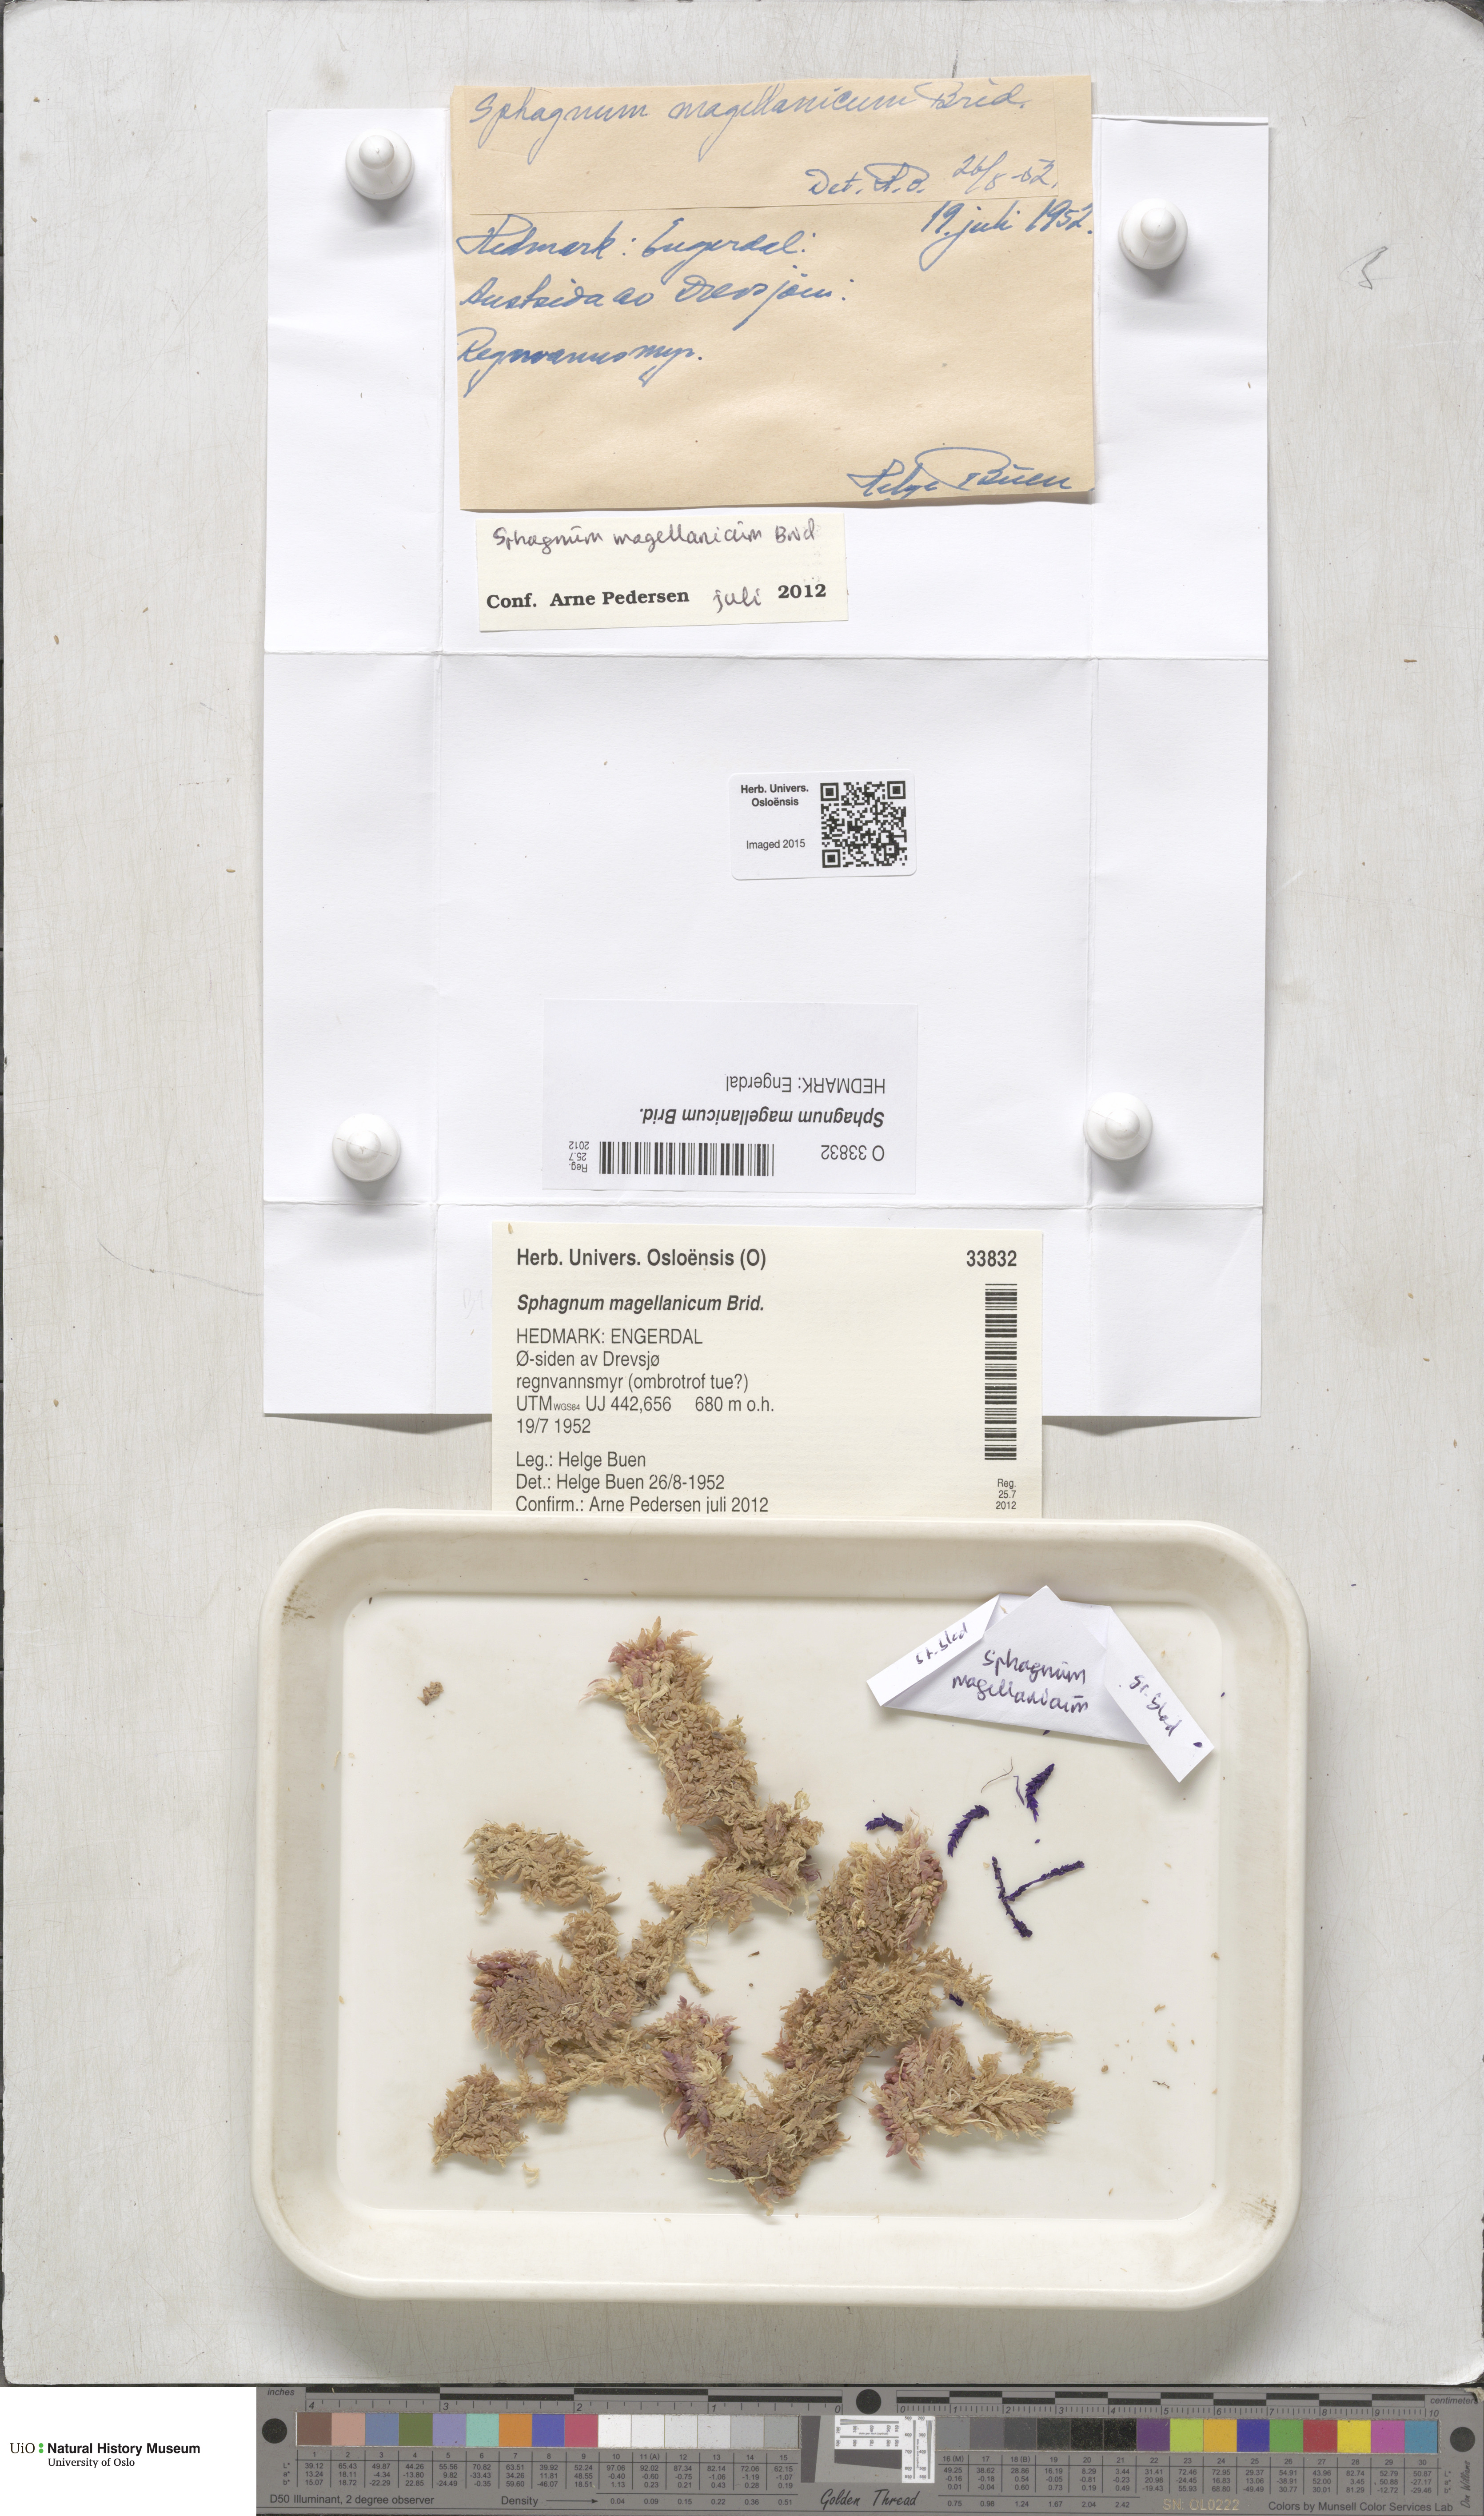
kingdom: Plantae
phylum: Bryophyta
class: Sphagnopsida
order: Sphagnales
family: Sphagnaceae
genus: Sphagnum
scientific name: Sphagnum magellanicum
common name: Magellan's peat moss
